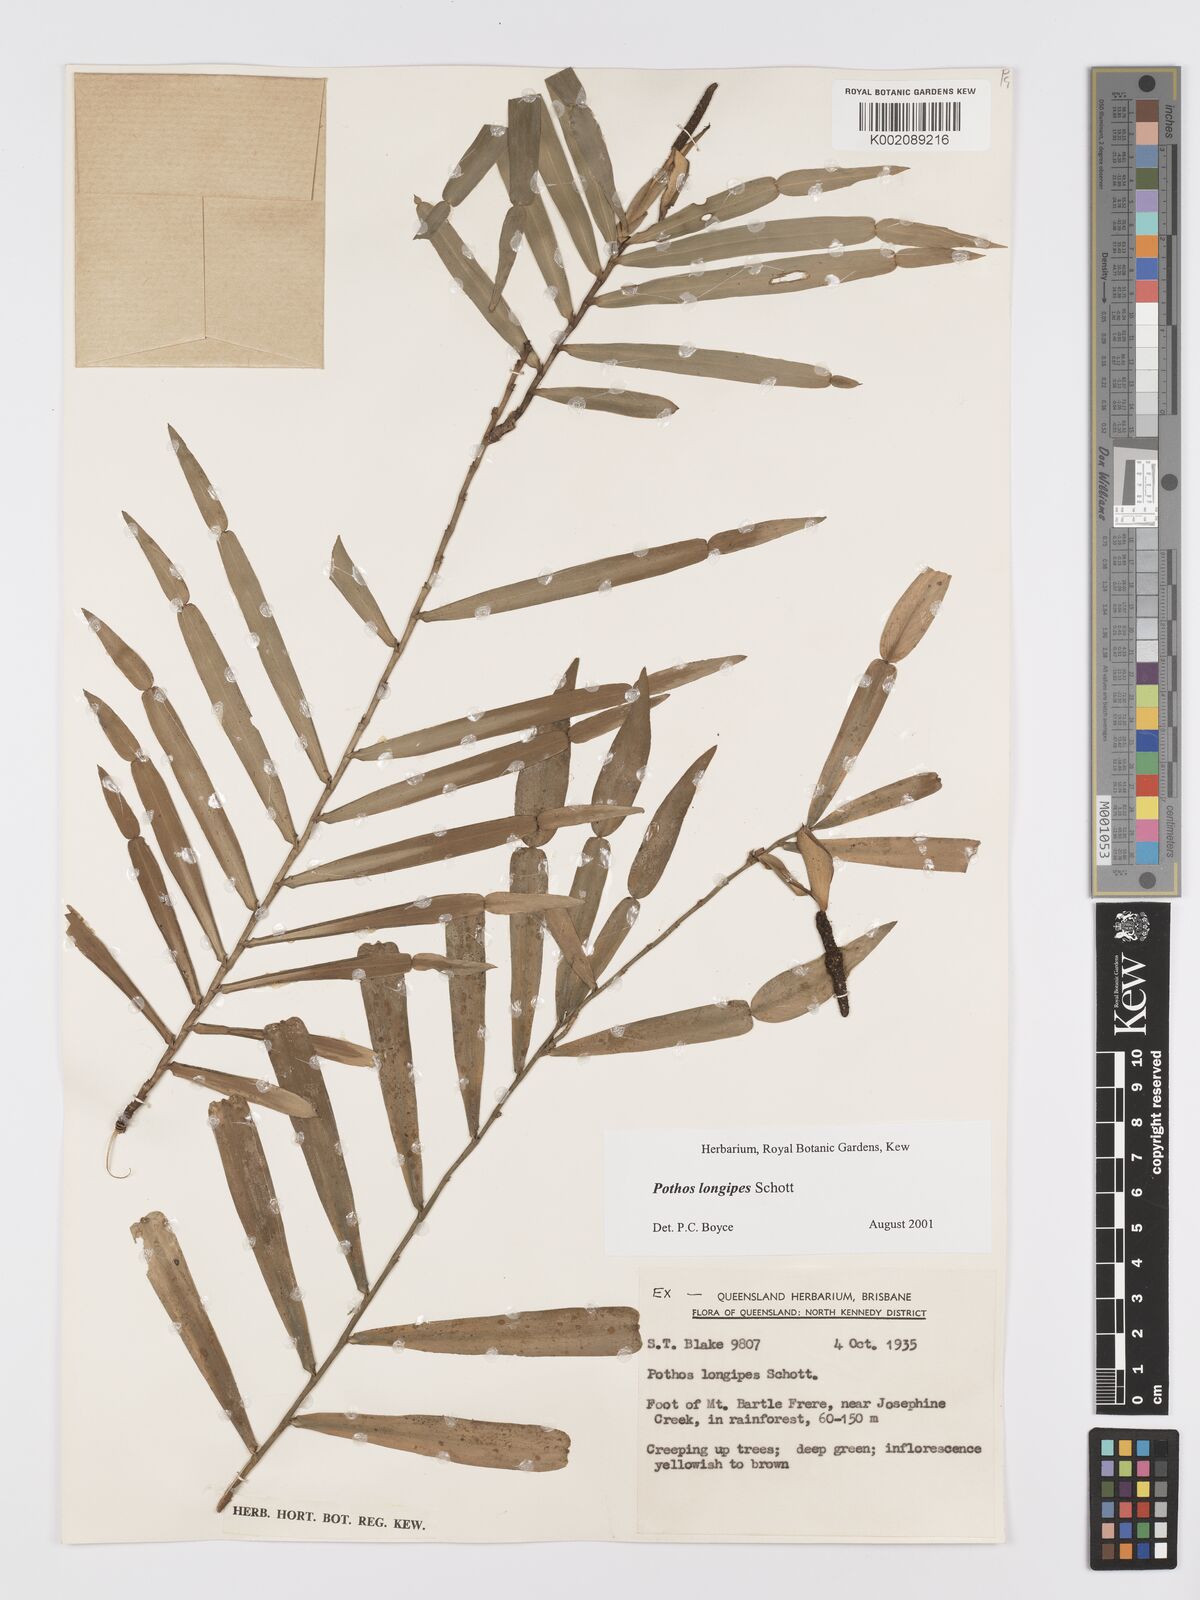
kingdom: Plantae
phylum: Tracheophyta
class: Liliopsida
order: Alismatales
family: Araceae
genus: Pothos
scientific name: Pothos longipes
